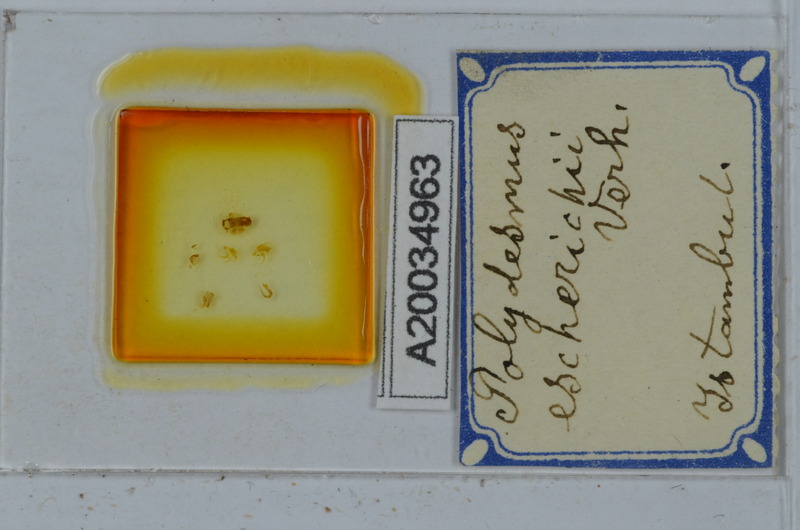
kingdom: Animalia
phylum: Arthropoda
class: Diplopoda
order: Polydesmida
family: Polydesmidae
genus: Polydesmus
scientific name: Polydesmus escherichii
